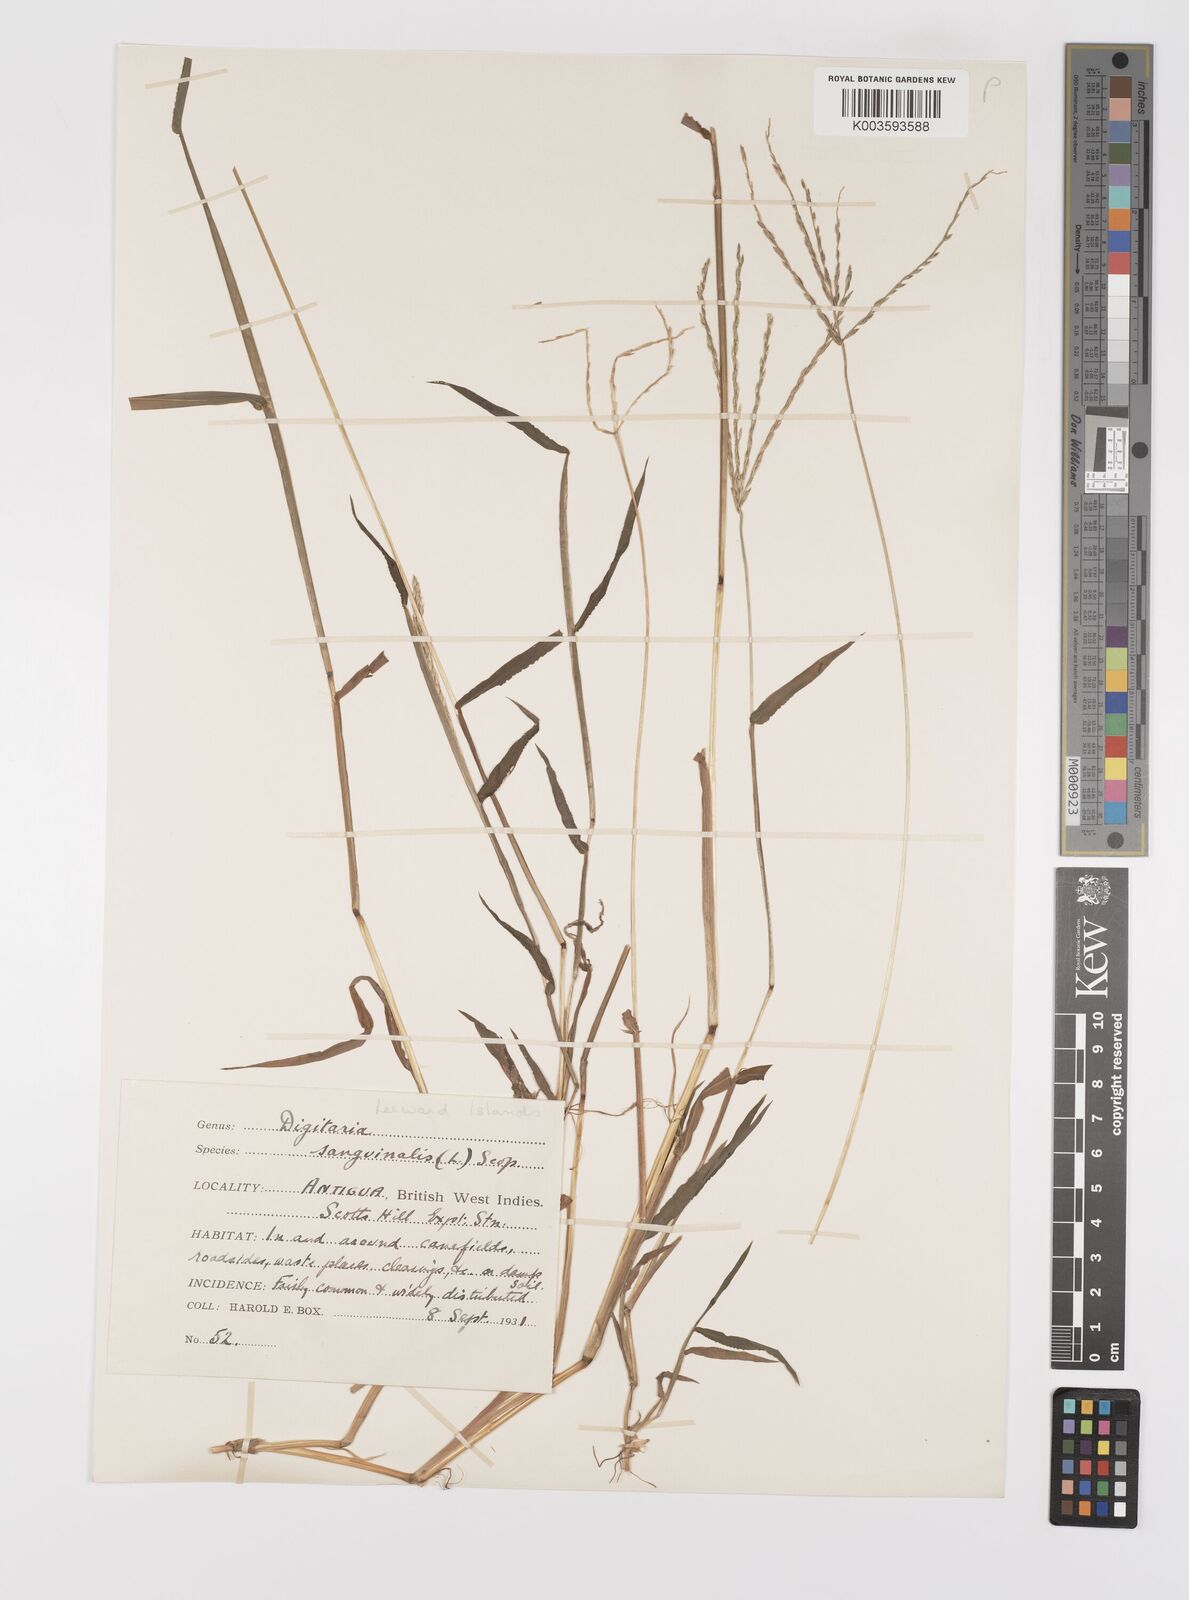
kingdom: Plantae
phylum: Tracheophyta
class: Liliopsida
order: Poales
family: Poaceae
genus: Digitaria
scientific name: Digitaria ciliaris
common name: Tropical finger-grass
